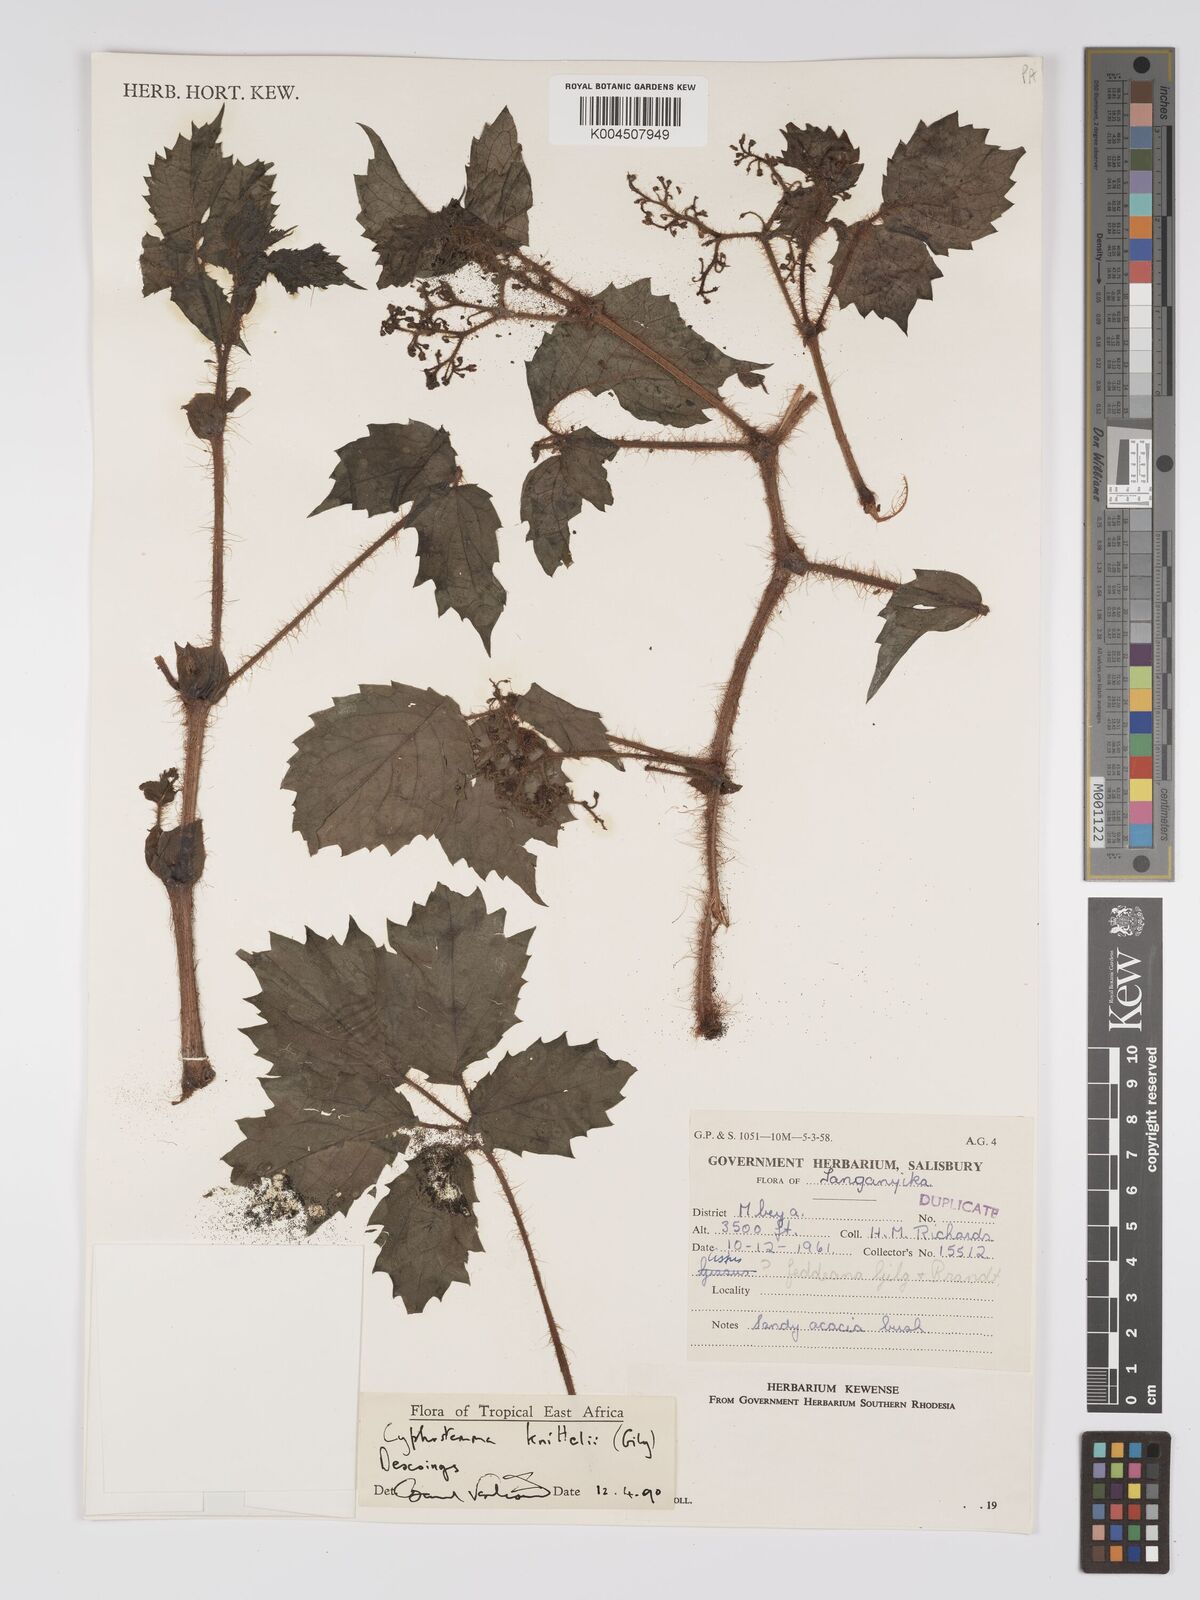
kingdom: Plantae
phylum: Tracheophyta
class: Magnoliopsida
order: Vitales
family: Vitaceae
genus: Cyphostemma
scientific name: Cyphostemma knittelii
